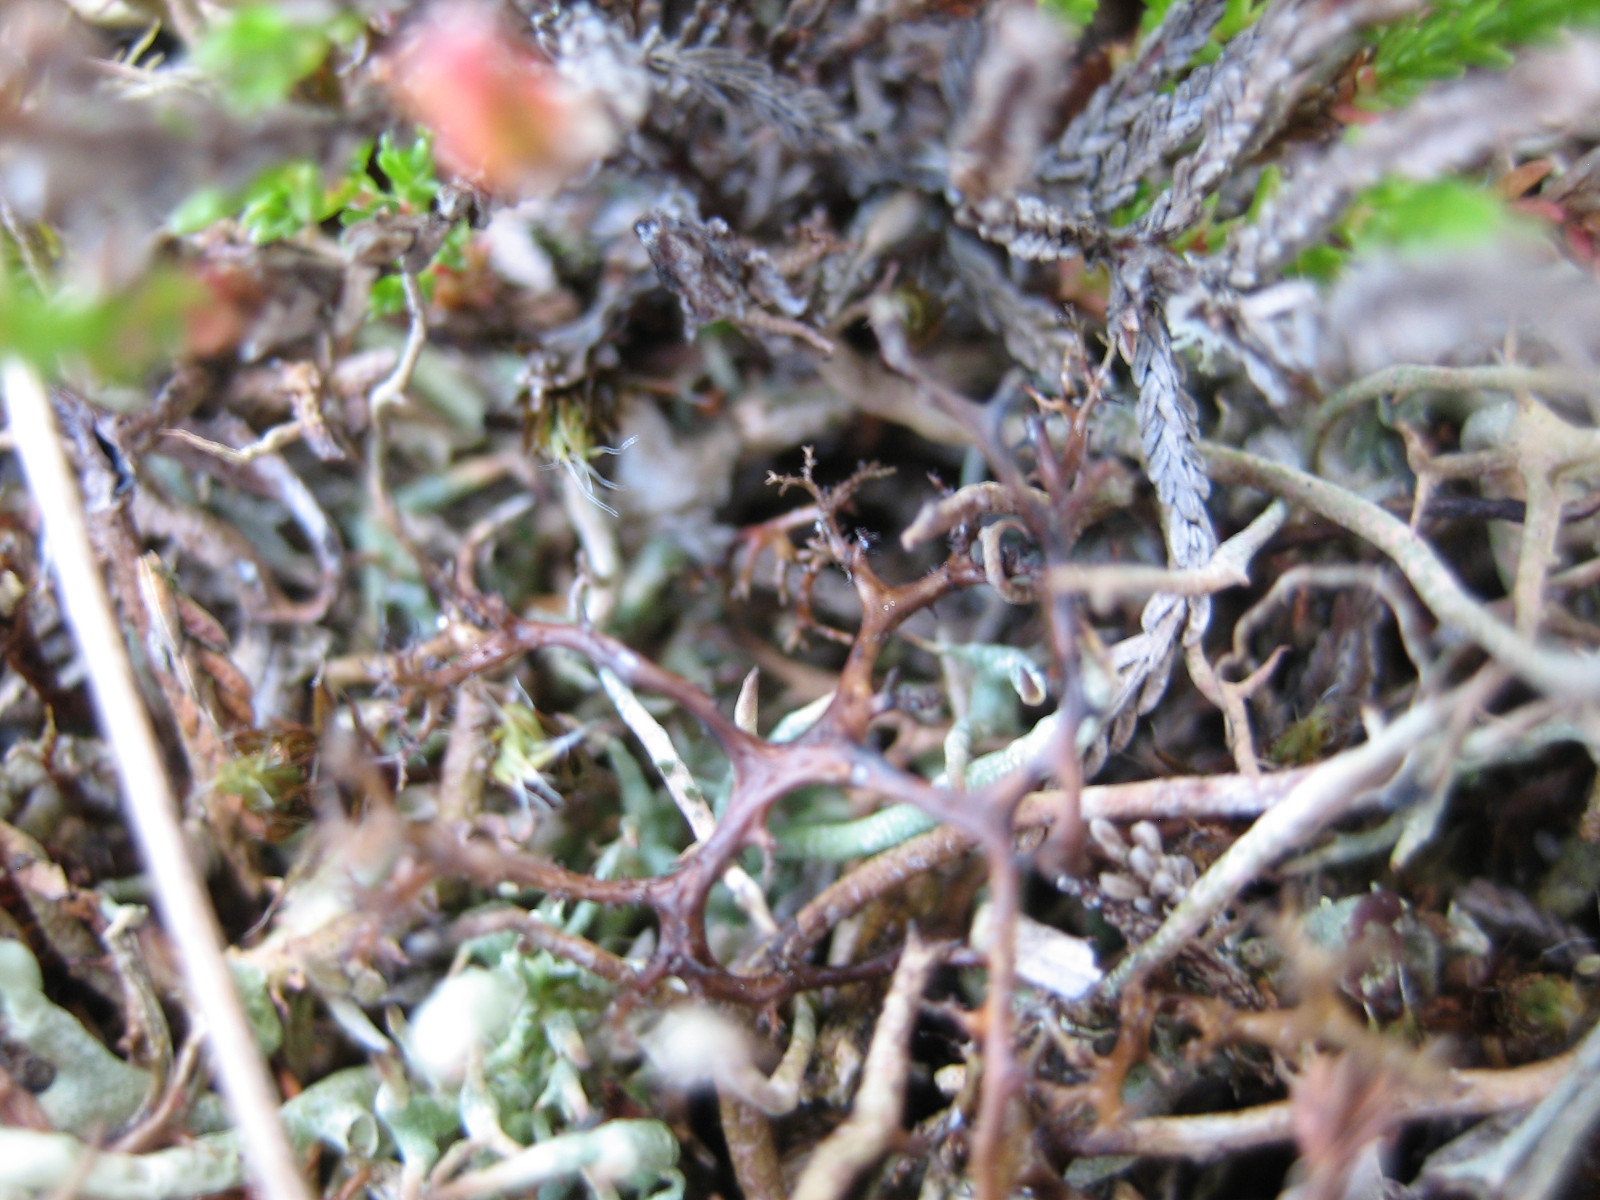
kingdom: Fungi
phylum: Ascomycota
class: Lecanoromycetes
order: Lecanorales
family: Parmeliaceae
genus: Cetraria
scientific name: Cetraria aculeata
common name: grubet tjørnelav
